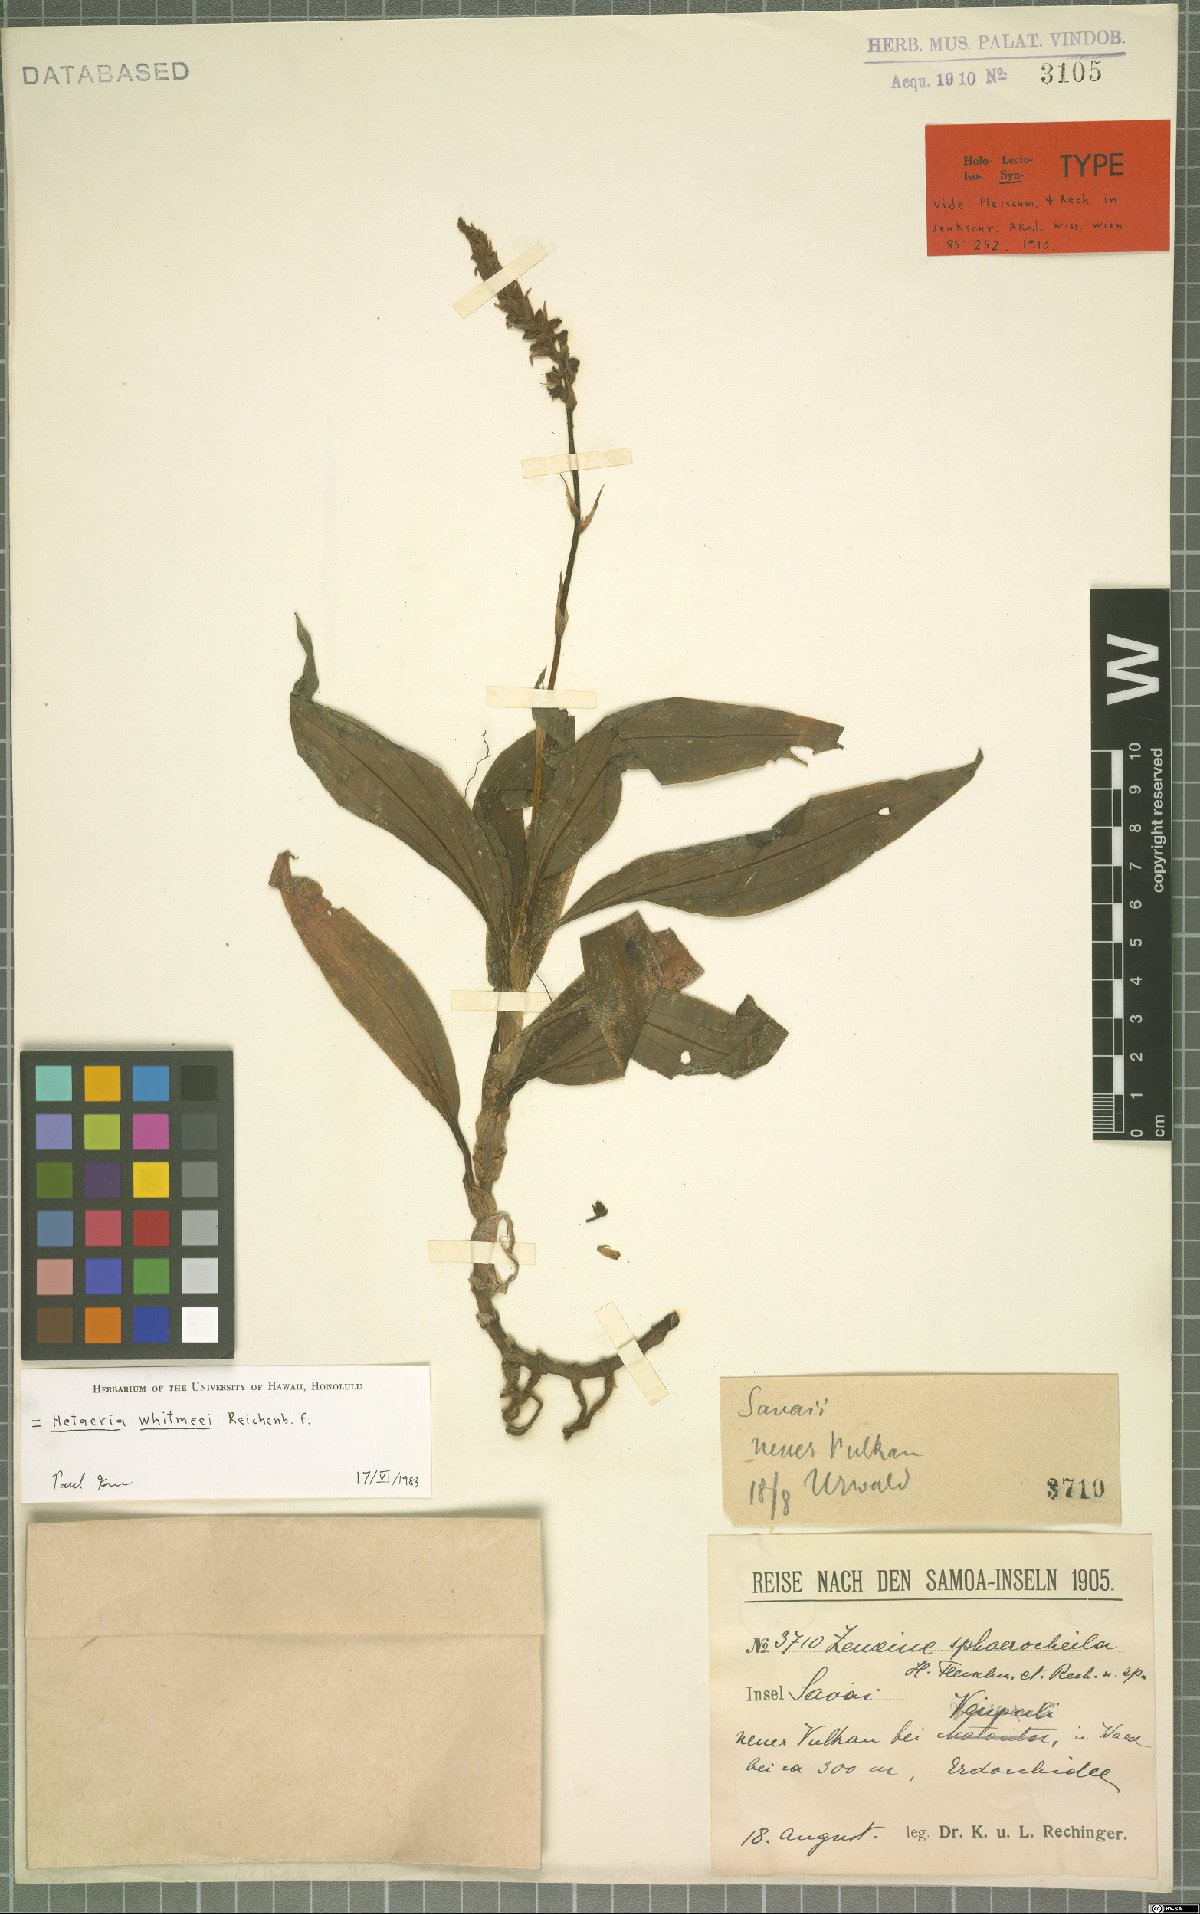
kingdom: Plantae
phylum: Tracheophyta
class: Liliopsida
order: Asparagales
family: Orchidaceae
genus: Hetaeria
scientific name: Hetaeria whitmeei
